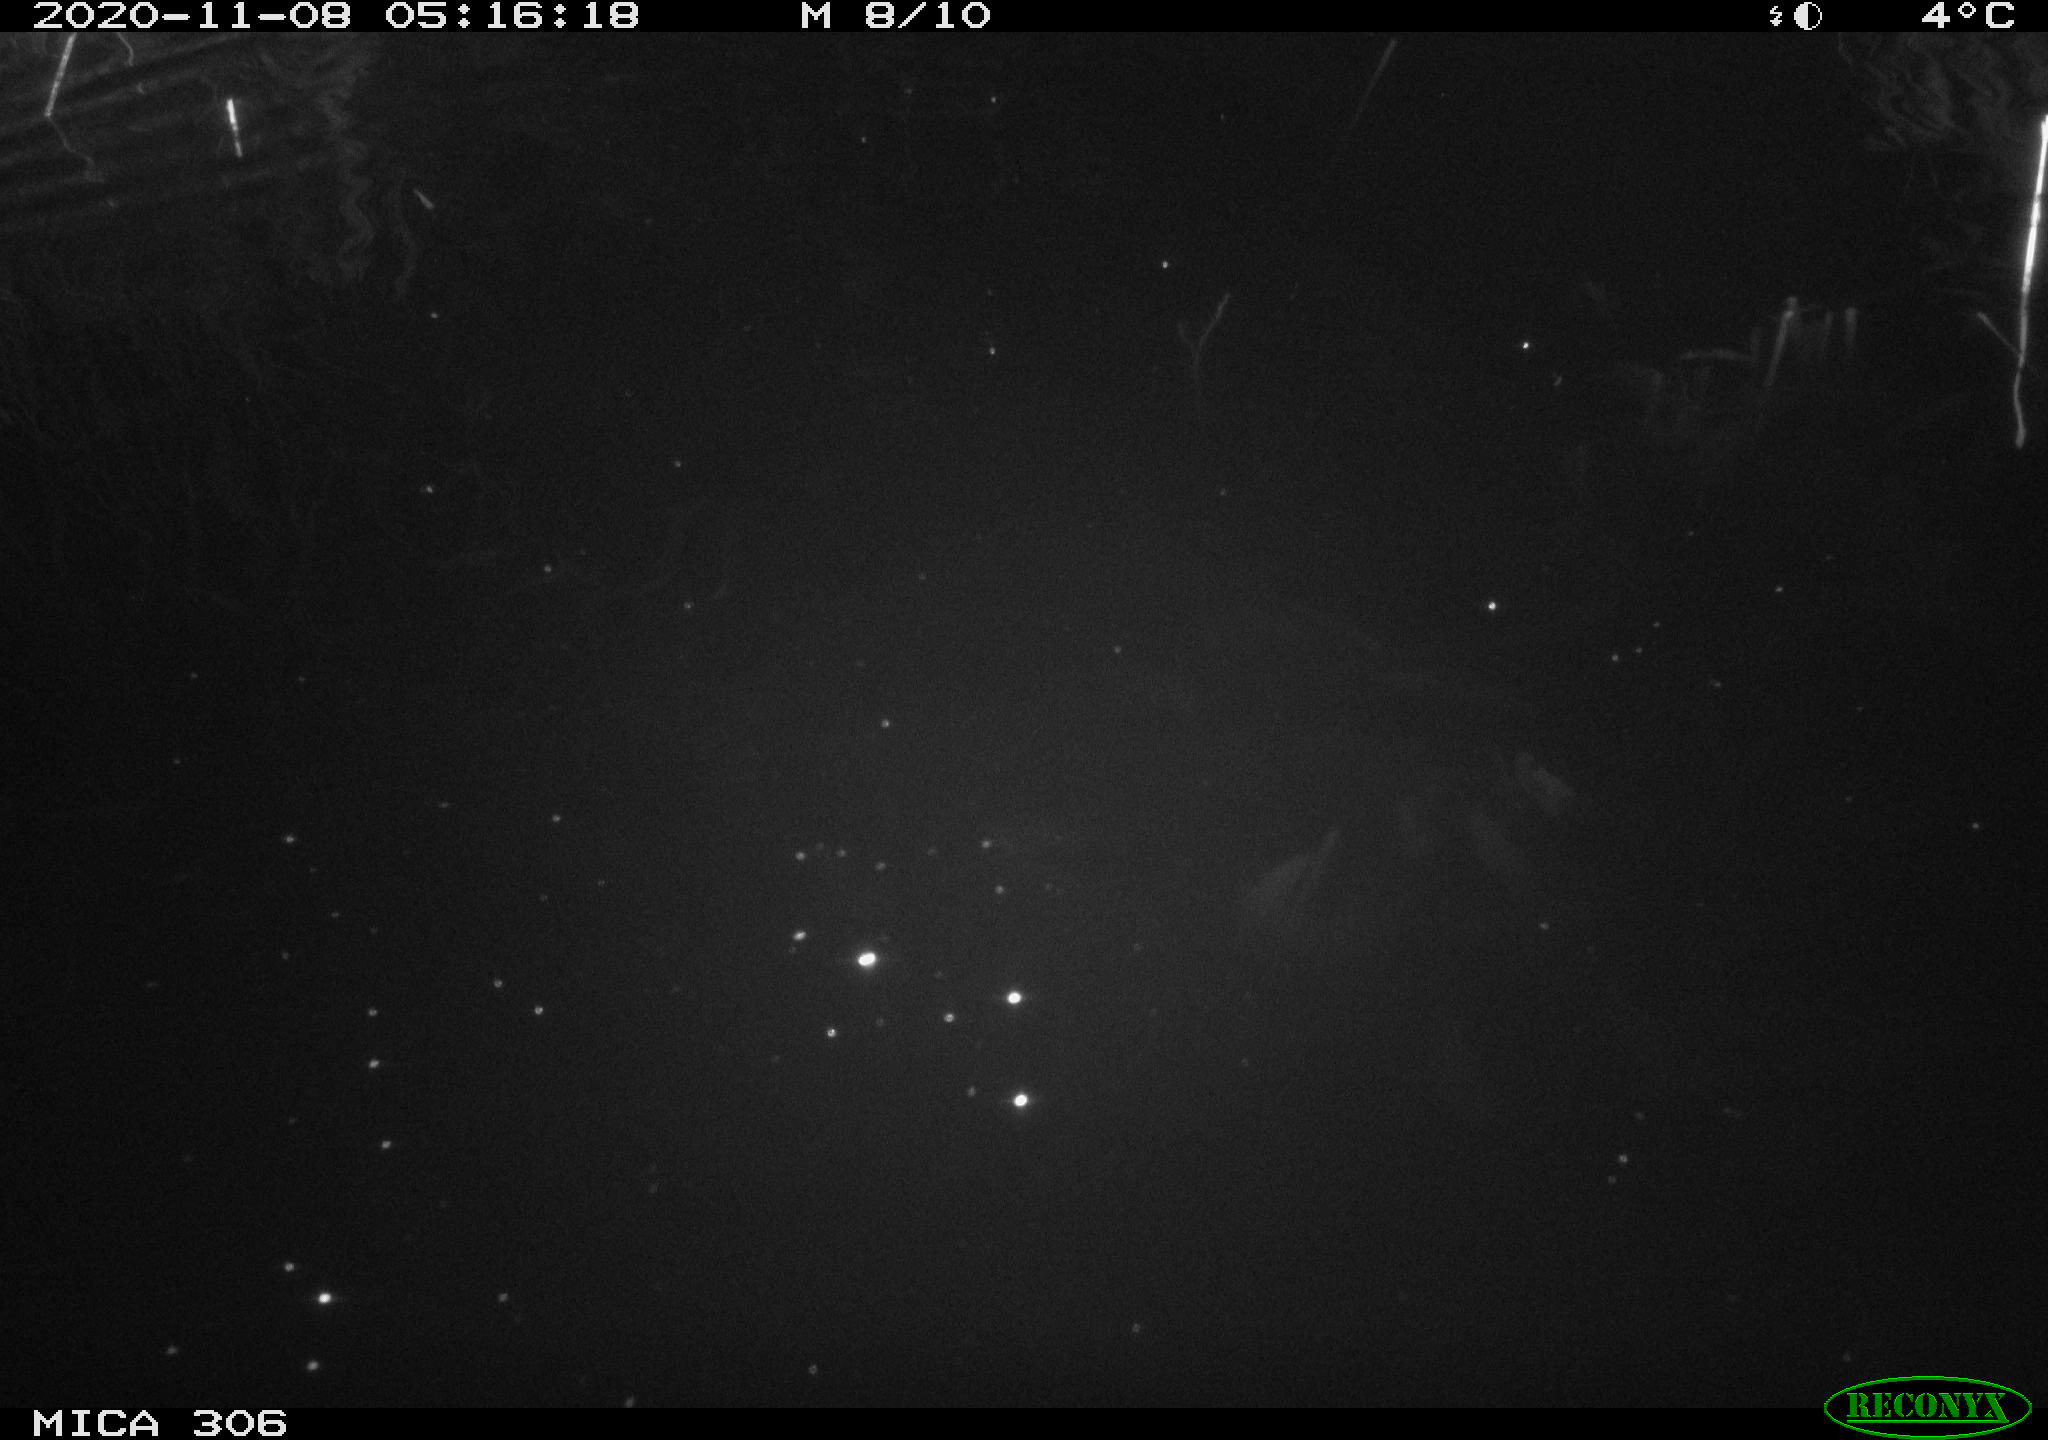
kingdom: Animalia
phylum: Chordata
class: Mammalia
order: Rodentia
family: Cricetidae
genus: Ondatra
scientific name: Ondatra zibethicus
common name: Muskrat
